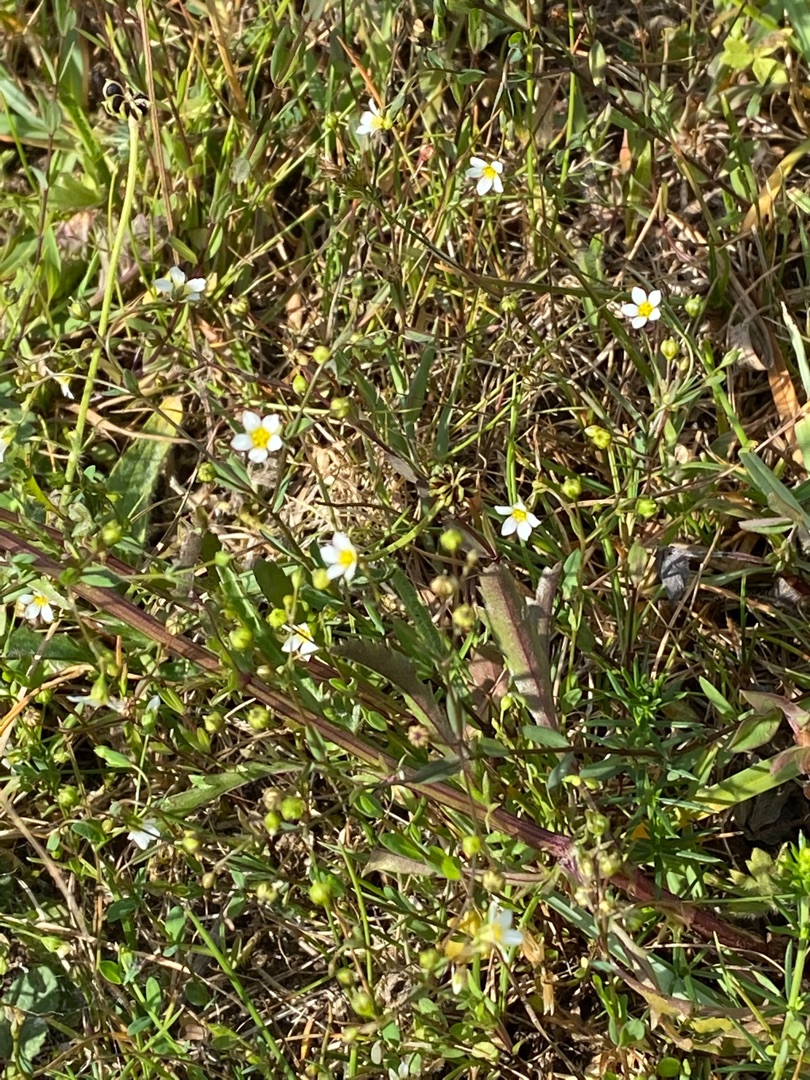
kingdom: Plantae
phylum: Tracheophyta
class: Magnoliopsida
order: Malpighiales
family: Linaceae
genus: Linum
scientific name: Linum catharticum
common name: Vild hør
